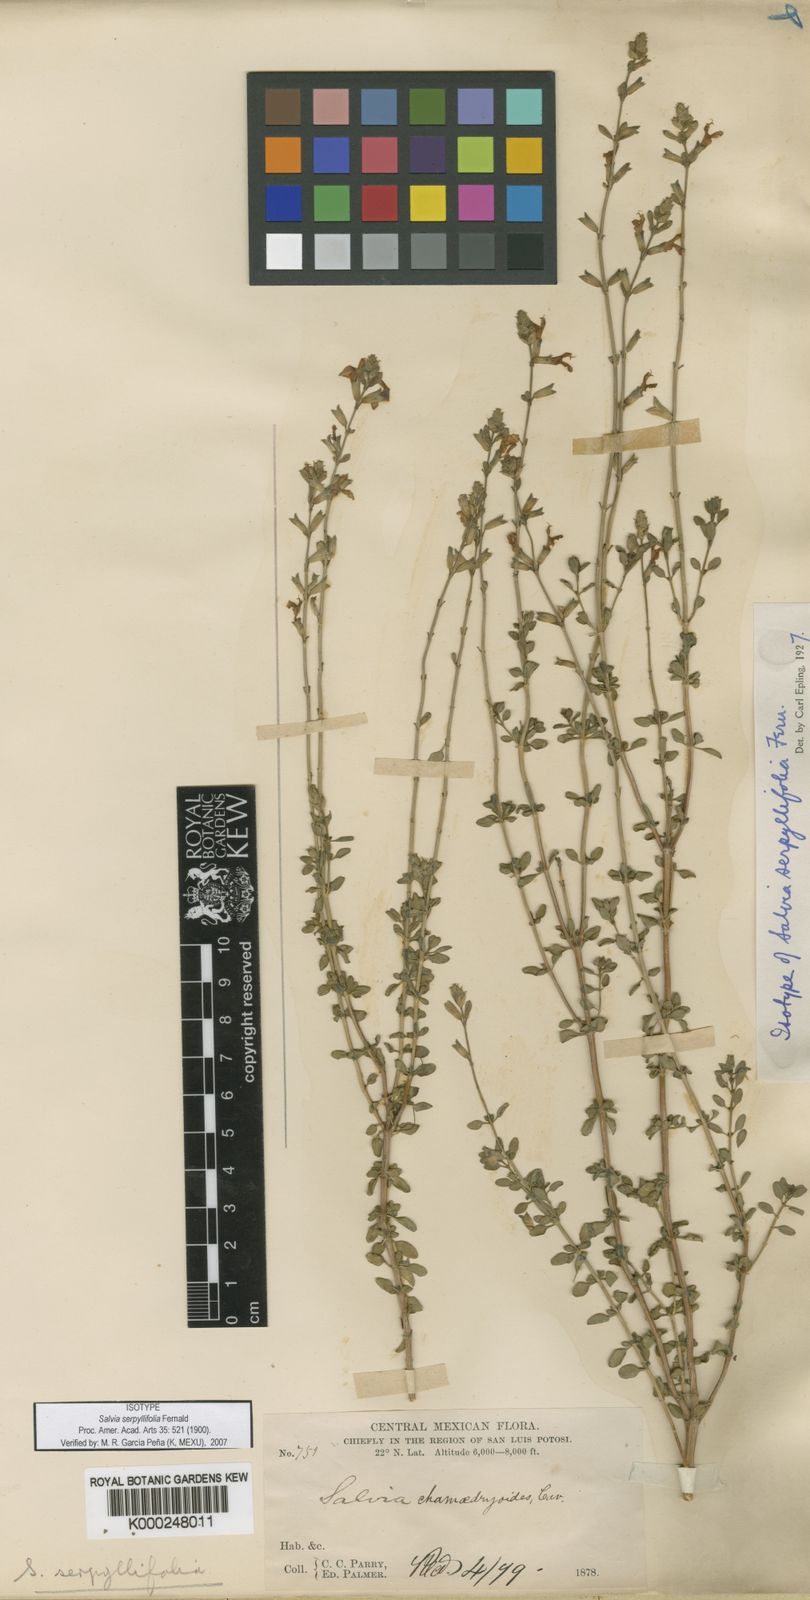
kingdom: Plantae
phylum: Tracheophyta
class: Magnoliopsida
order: Lamiales
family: Lamiaceae
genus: Salvia
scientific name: Salvia serpyllifolia
